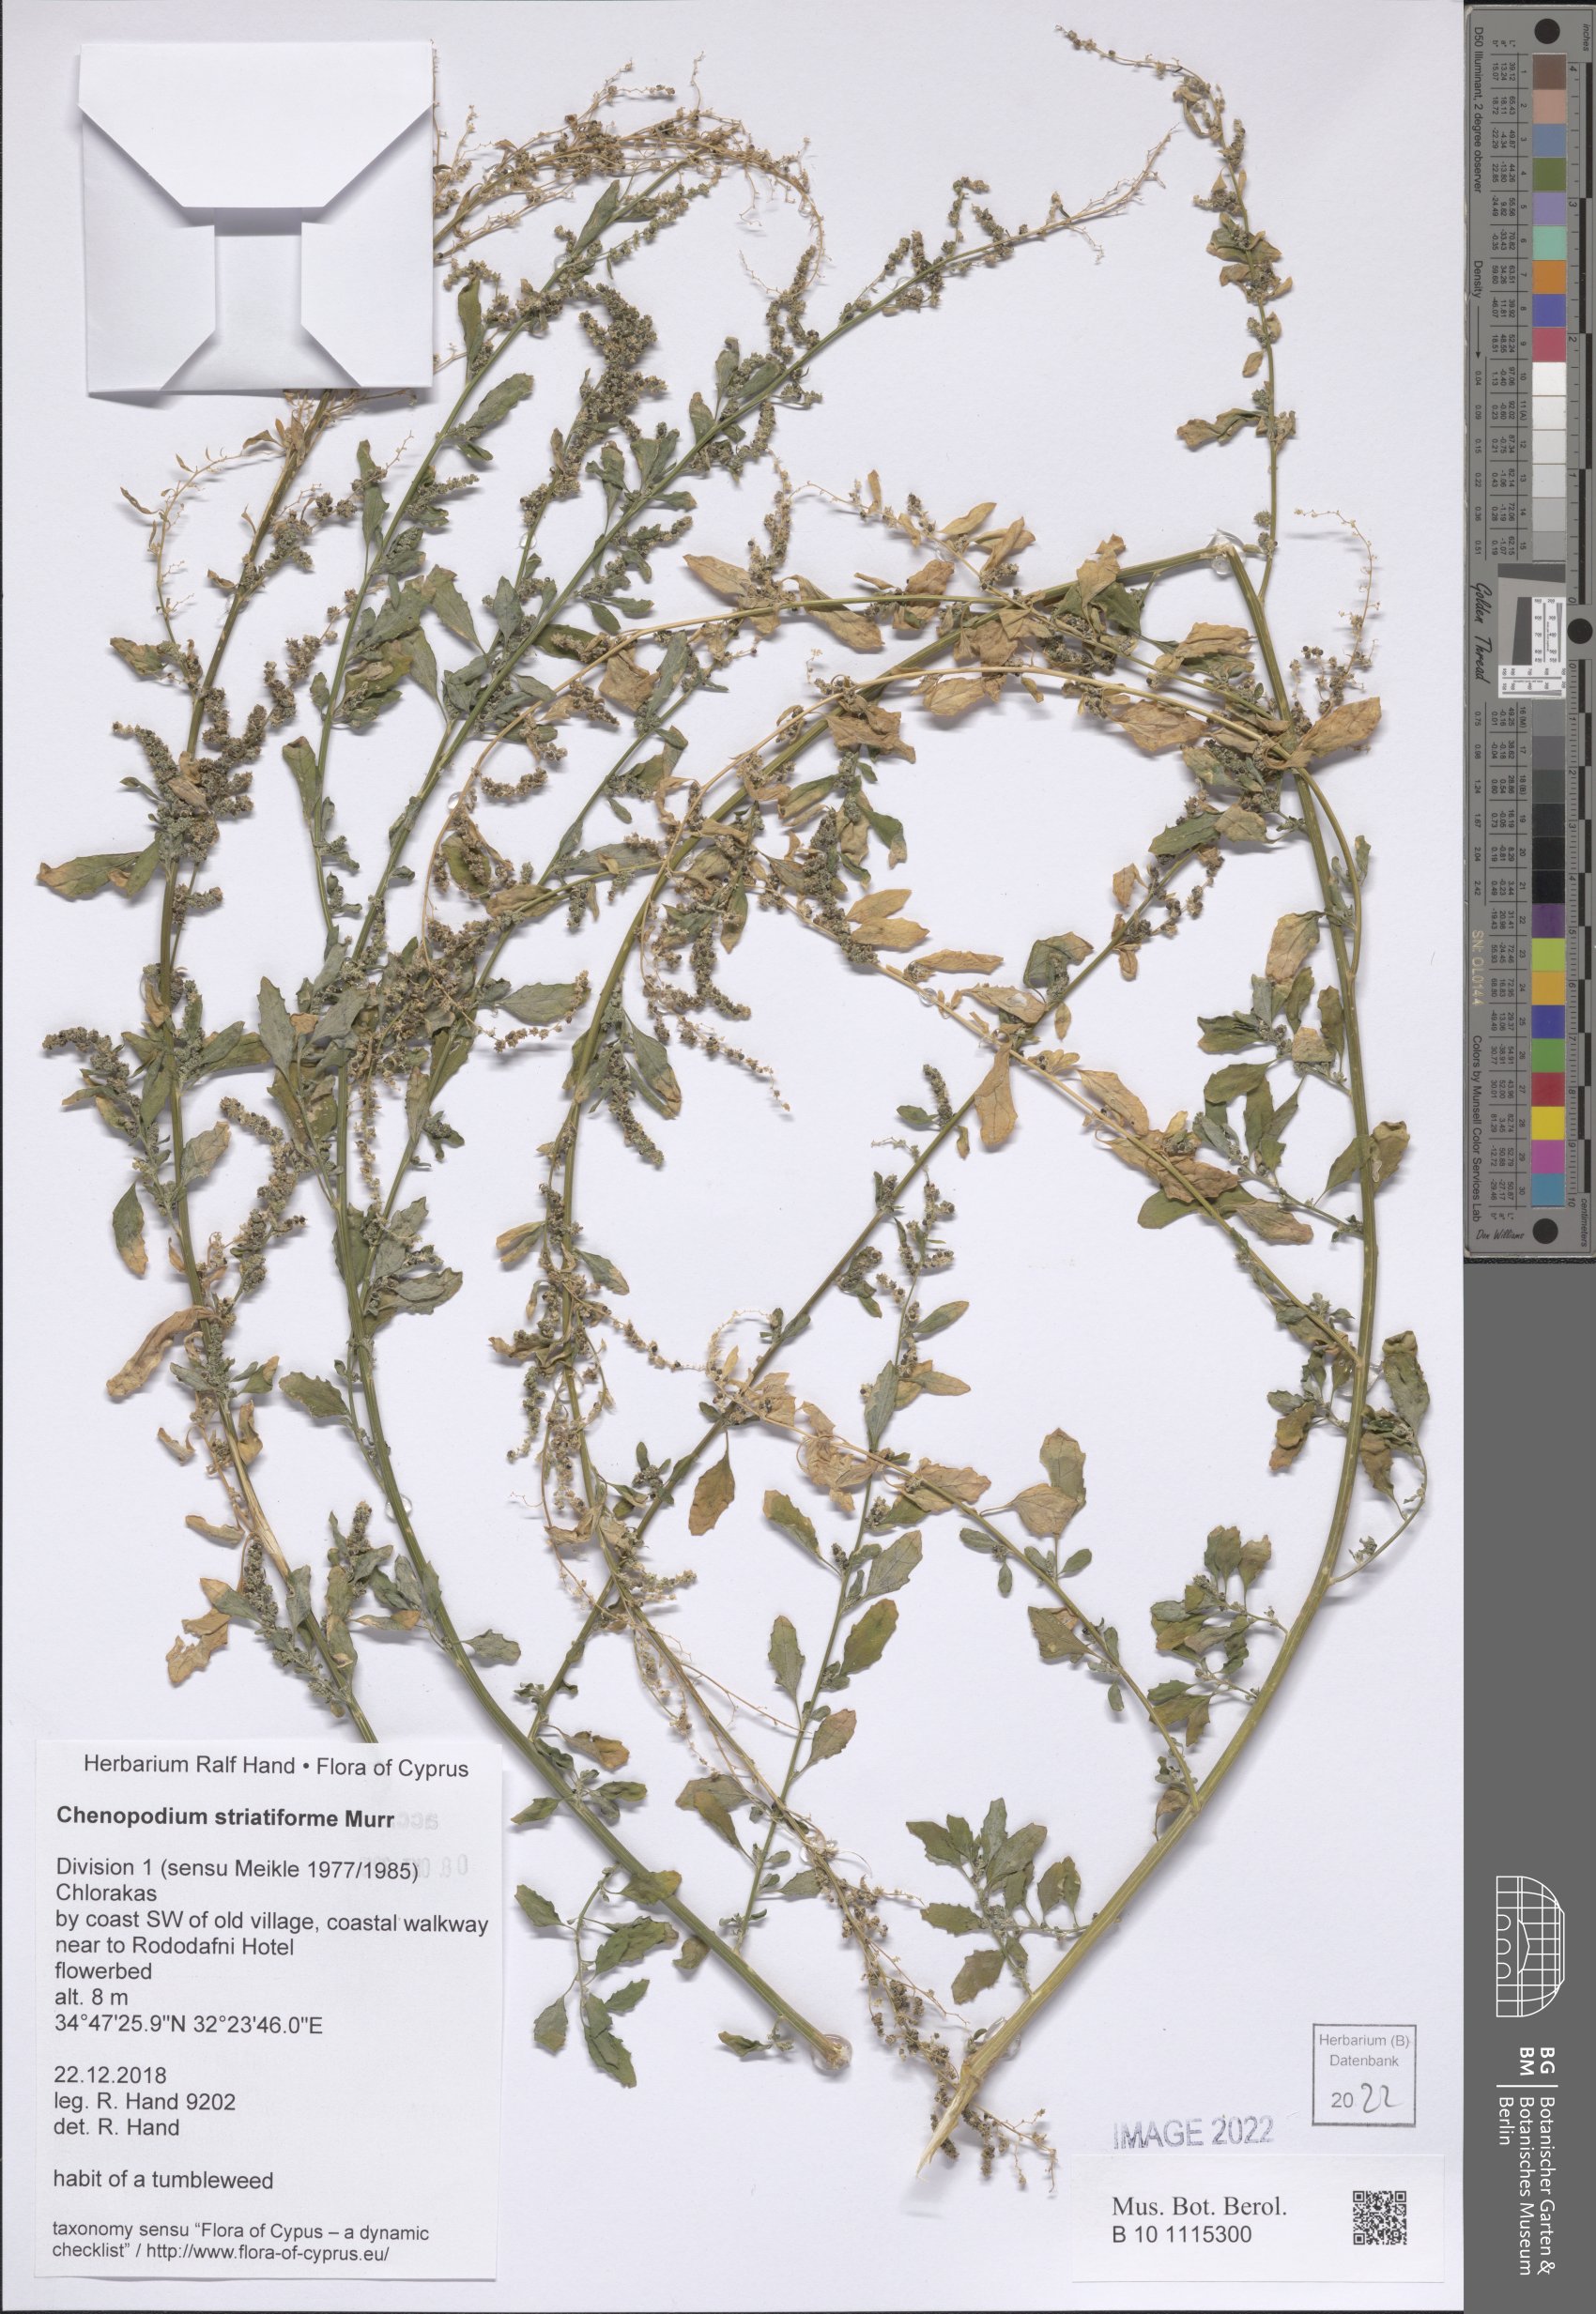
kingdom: Plantae
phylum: Tracheophyta
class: Magnoliopsida
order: Caryophyllales
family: Amaranthaceae
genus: Chenopodium
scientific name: Chenopodium striatiforme
